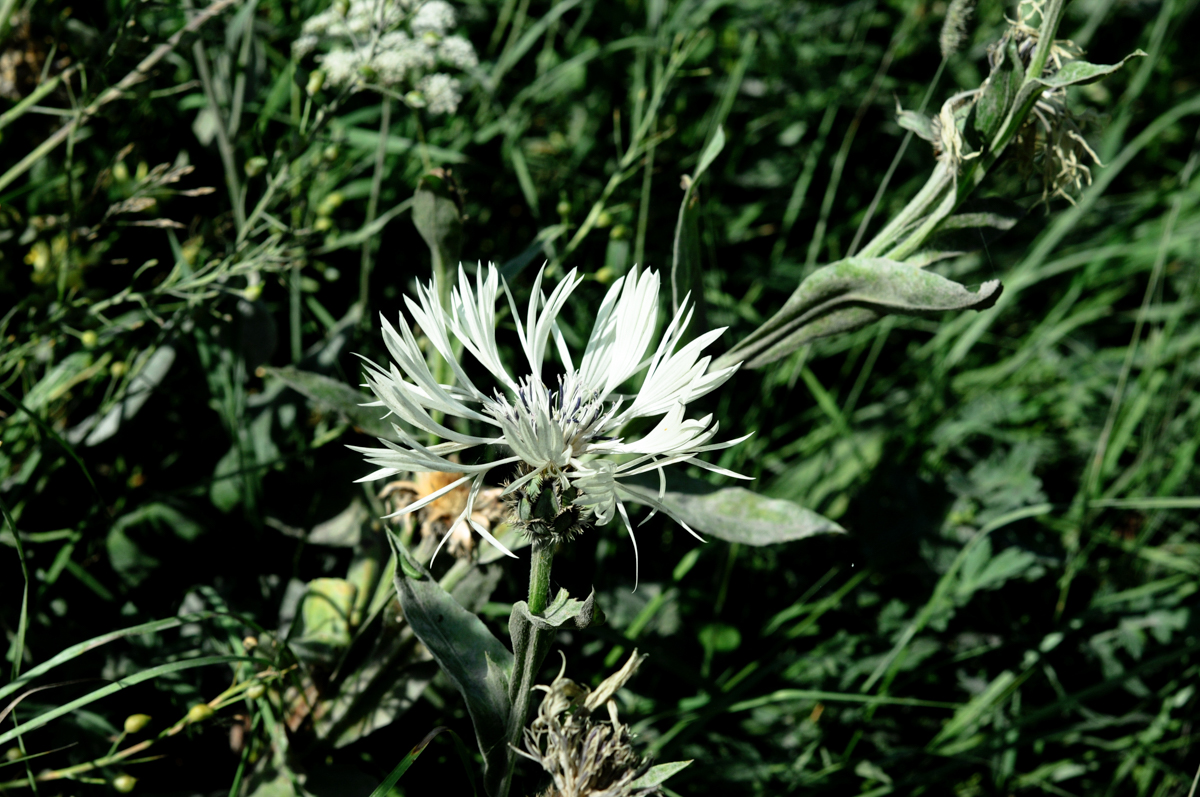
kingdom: Plantae
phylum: Tracheophyta
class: Magnoliopsida
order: Asterales
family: Asteraceae
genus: Centaurea
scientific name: Centaurea cheiranthifolia
